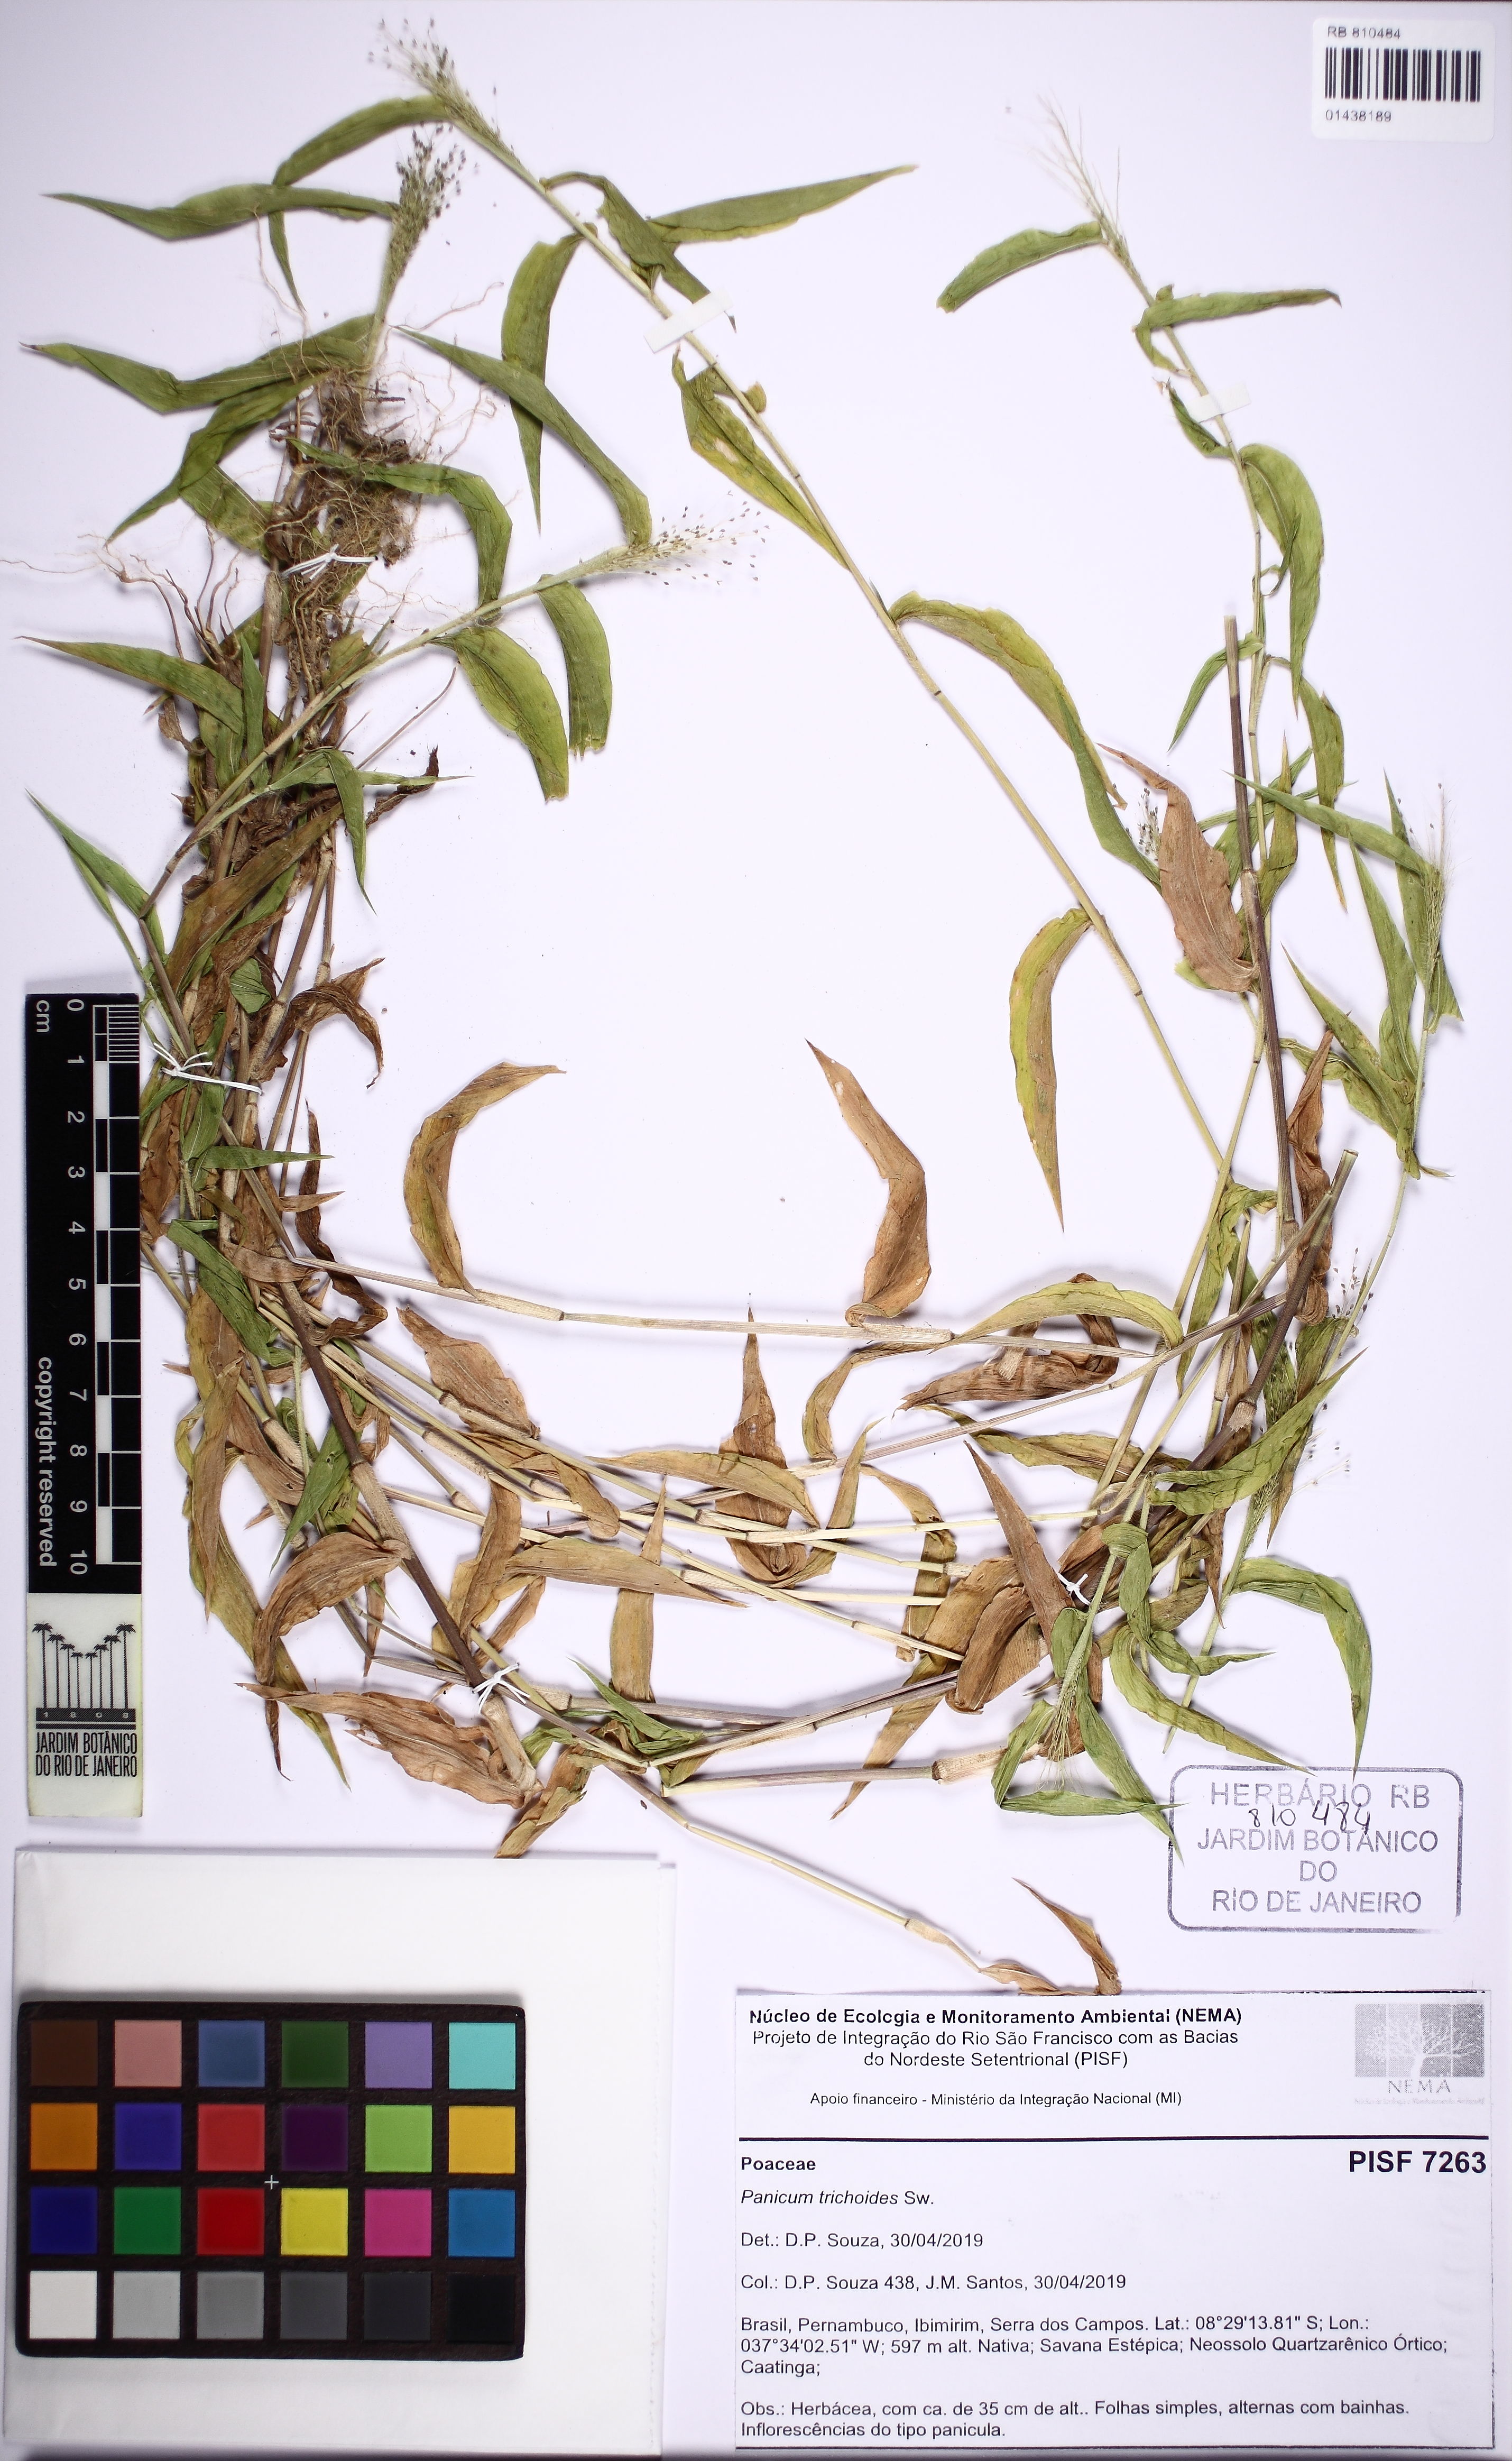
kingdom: Plantae
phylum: Tracheophyta
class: Liliopsida
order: Poales
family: Poaceae
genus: Panicum
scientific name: Panicum trichoides
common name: Tickle grass
